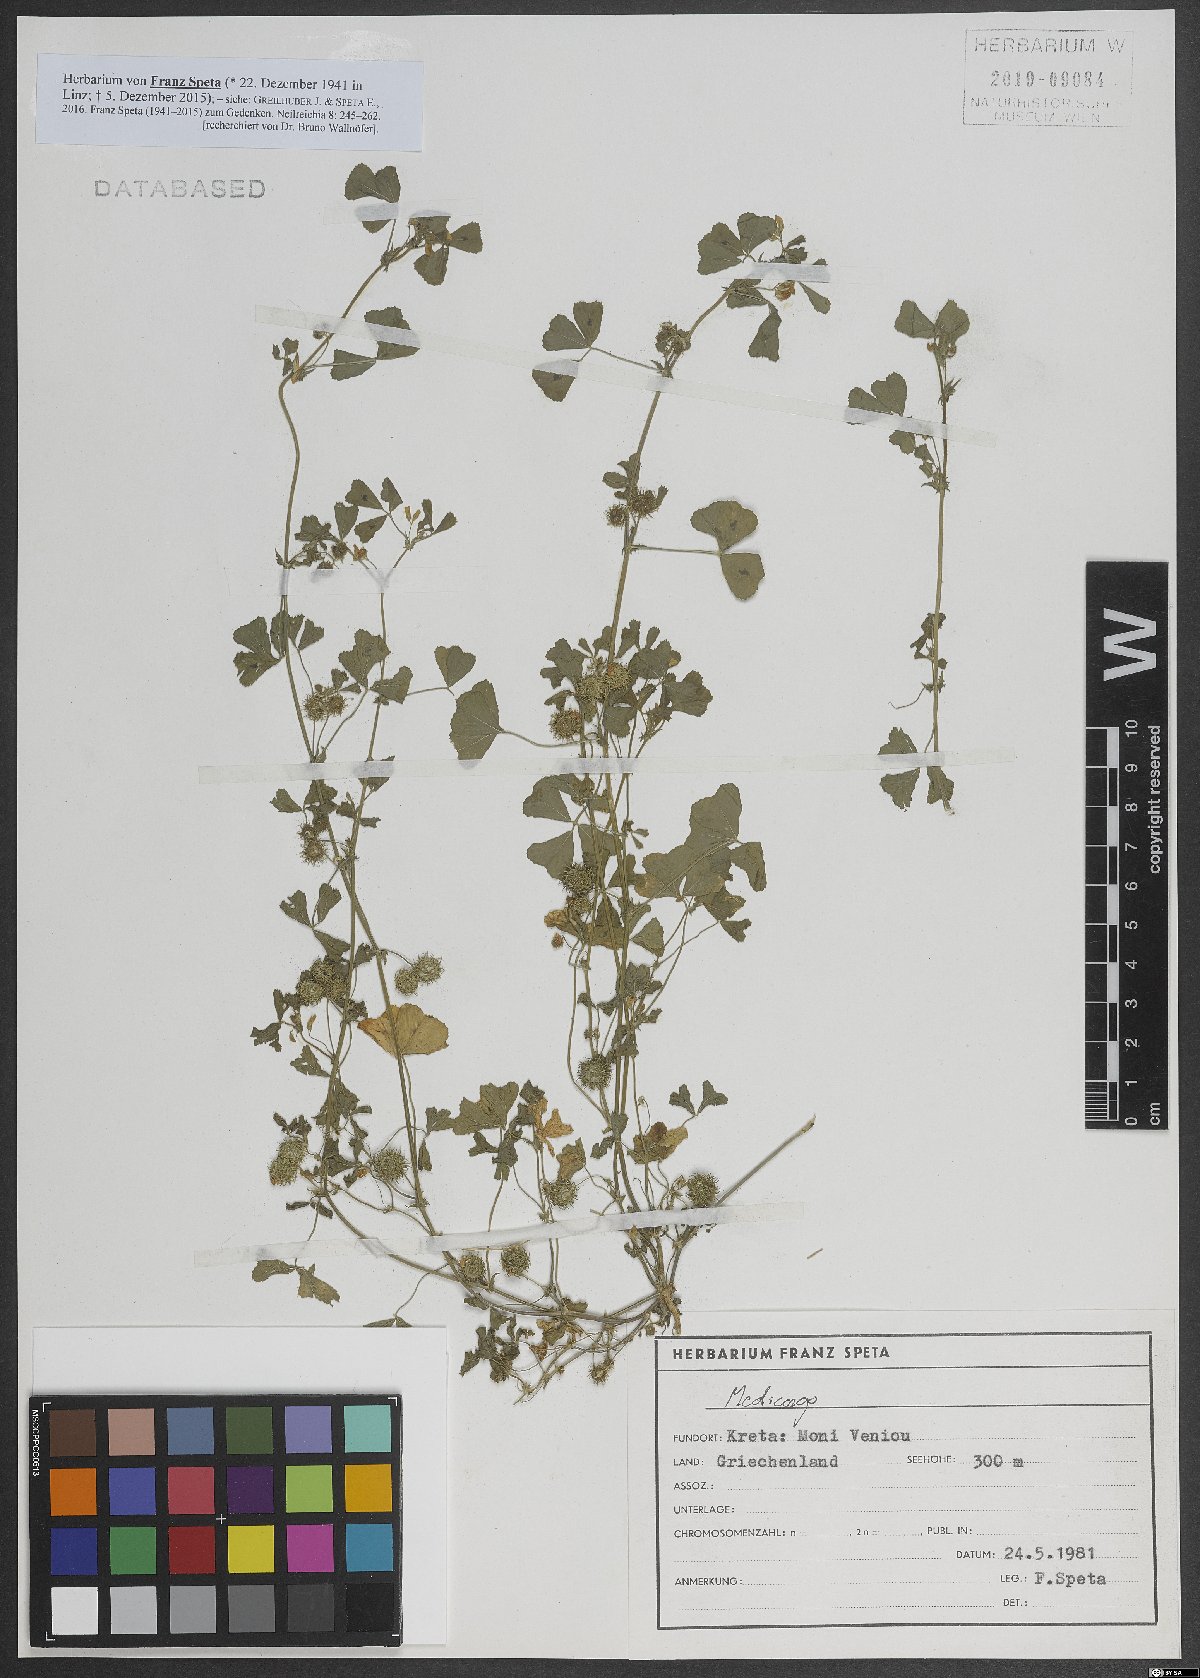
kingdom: Plantae
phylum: Tracheophyta
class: Magnoliopsida
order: Fabales
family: Fabaceae
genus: Medicago
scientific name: Medicago
